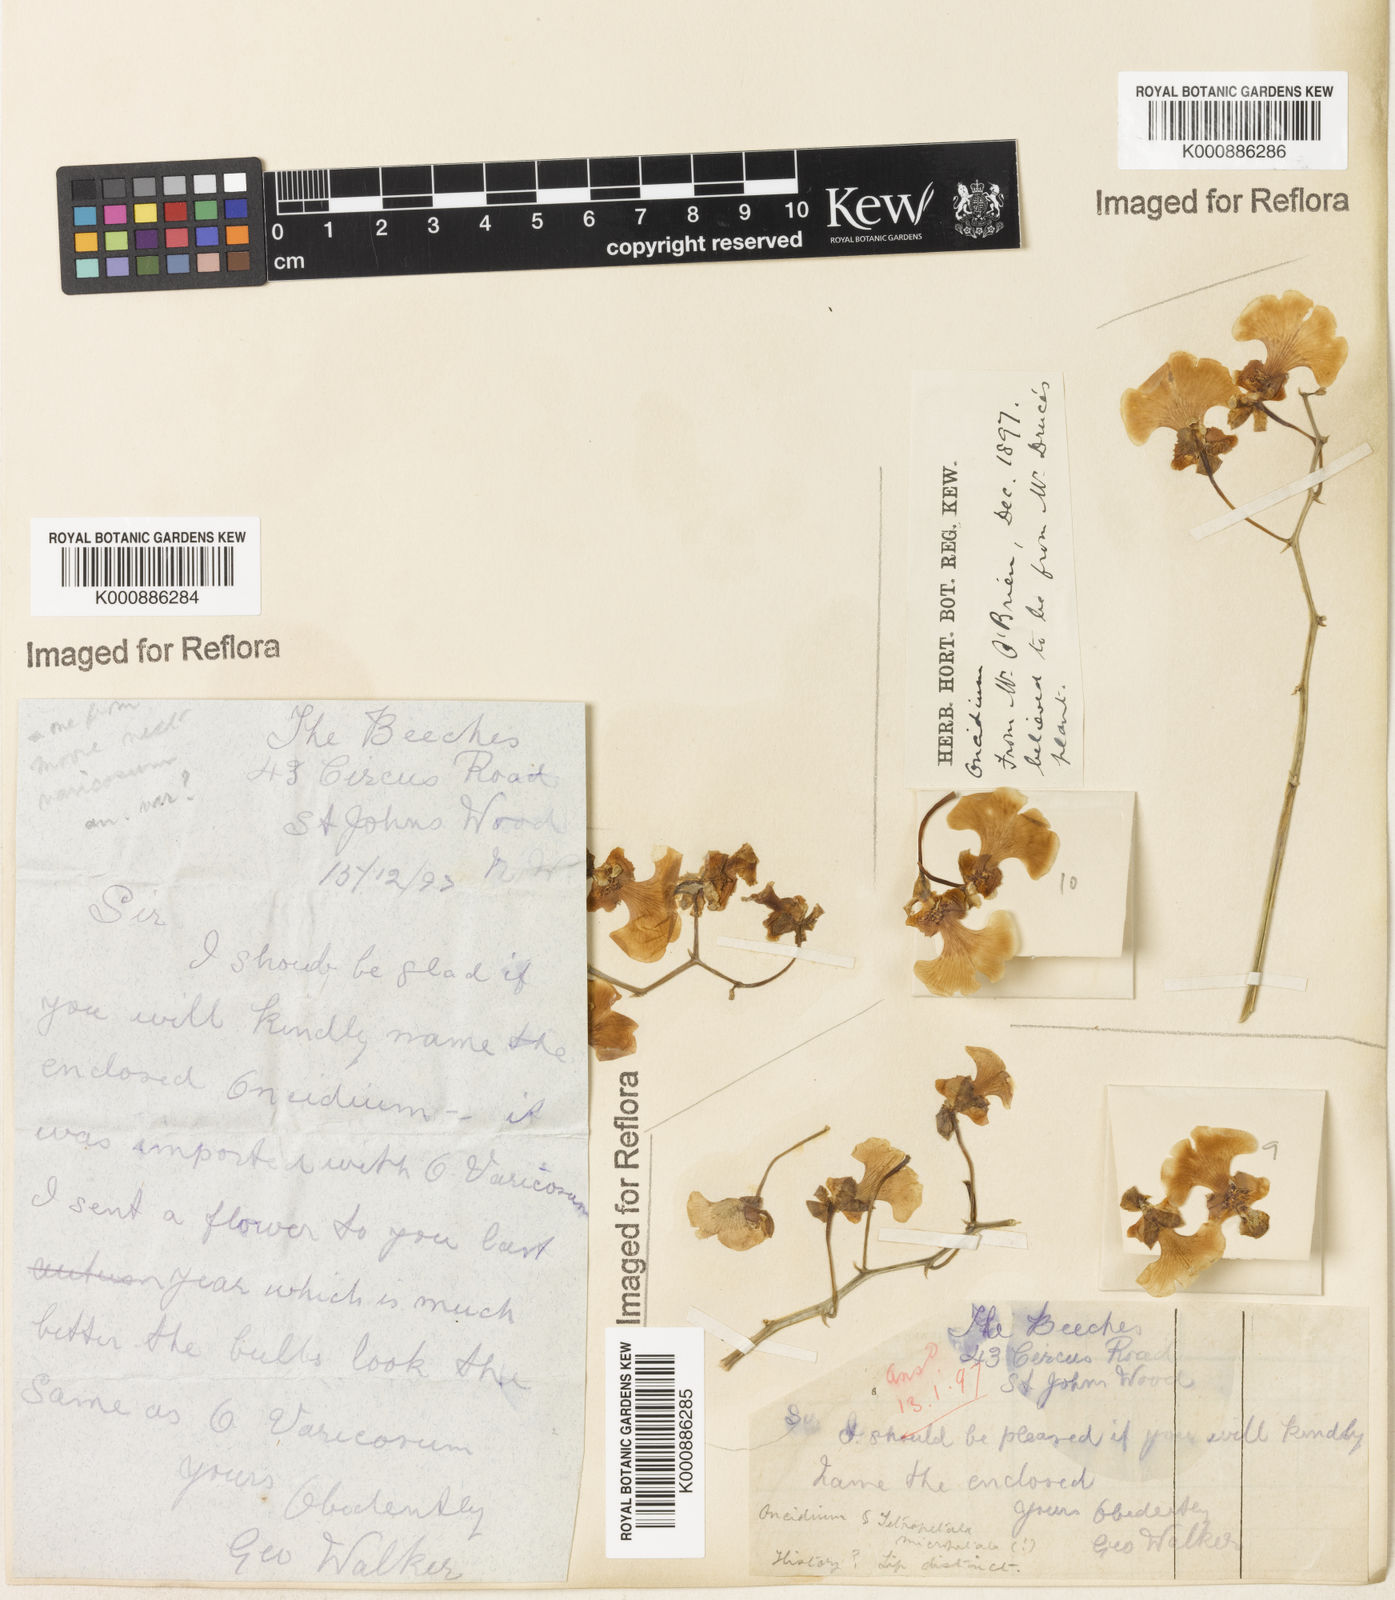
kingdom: Plantae
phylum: Tracheophyta
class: Liliopsida
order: Asparagales
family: Orchidaceae
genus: Gomesa
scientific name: Gomesa varicosa
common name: Dancing ladies
